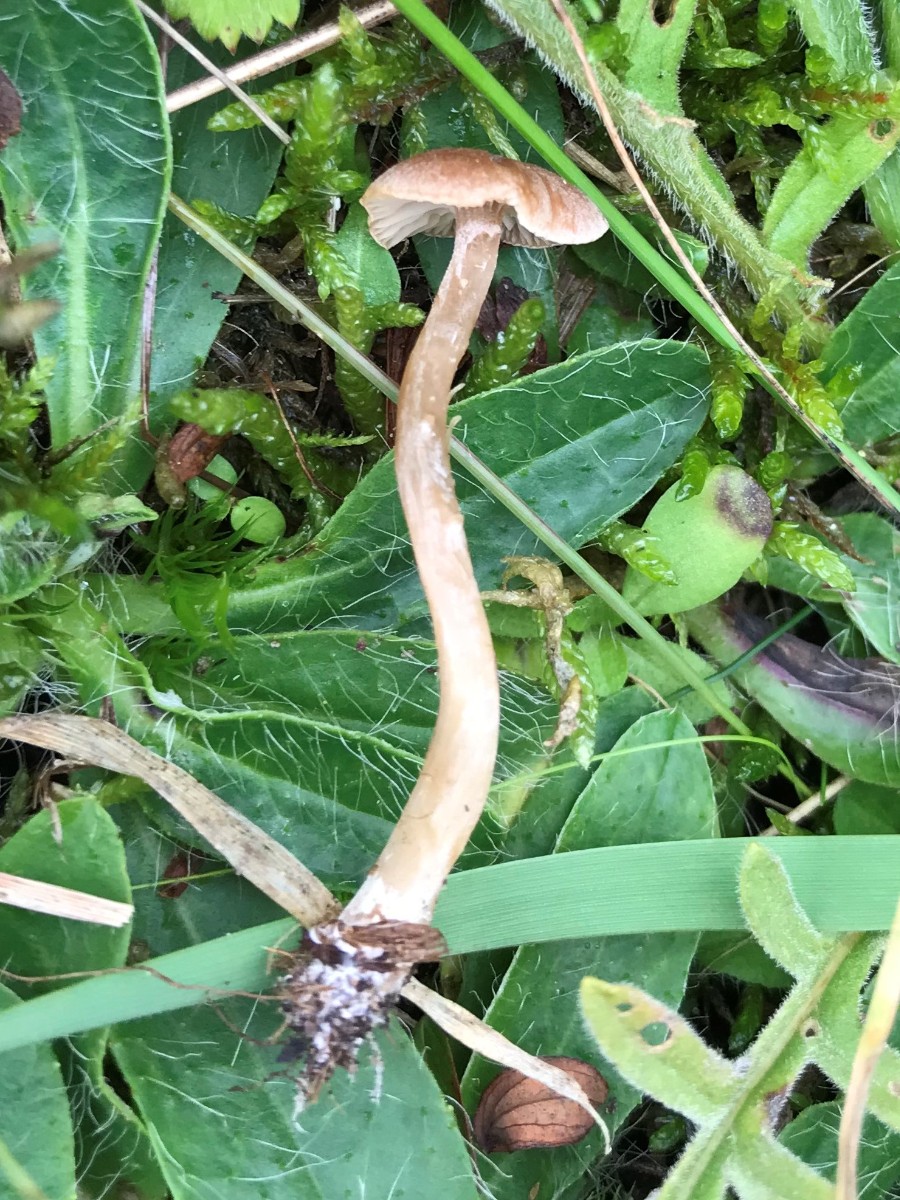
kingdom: Fungi
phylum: Basidiomycota
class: Agaricomycetes
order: Agaricales
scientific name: Agaricales
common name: champignonordenen
